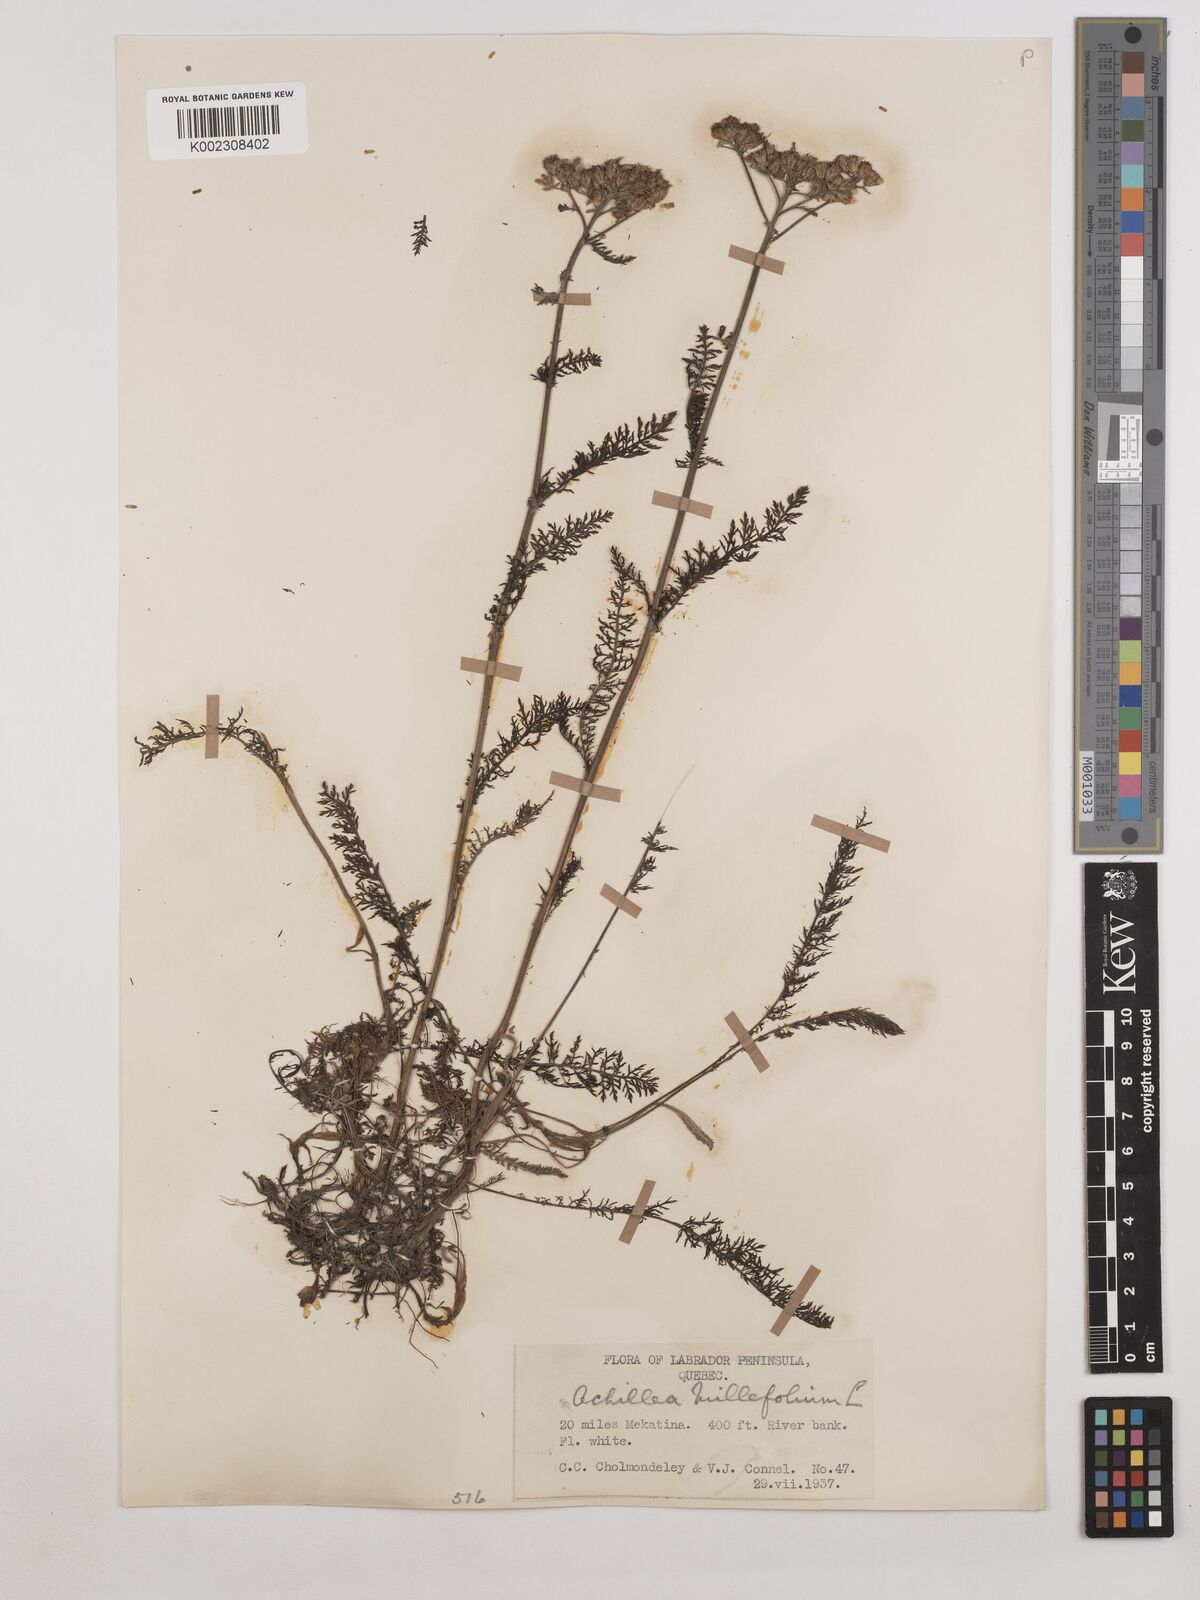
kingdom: Plantae
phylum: Tracheophyta
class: Magnoliopsida
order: Asterales
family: Asteraceae
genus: Achillea
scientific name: Achillea millefolium
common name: Yarrow
